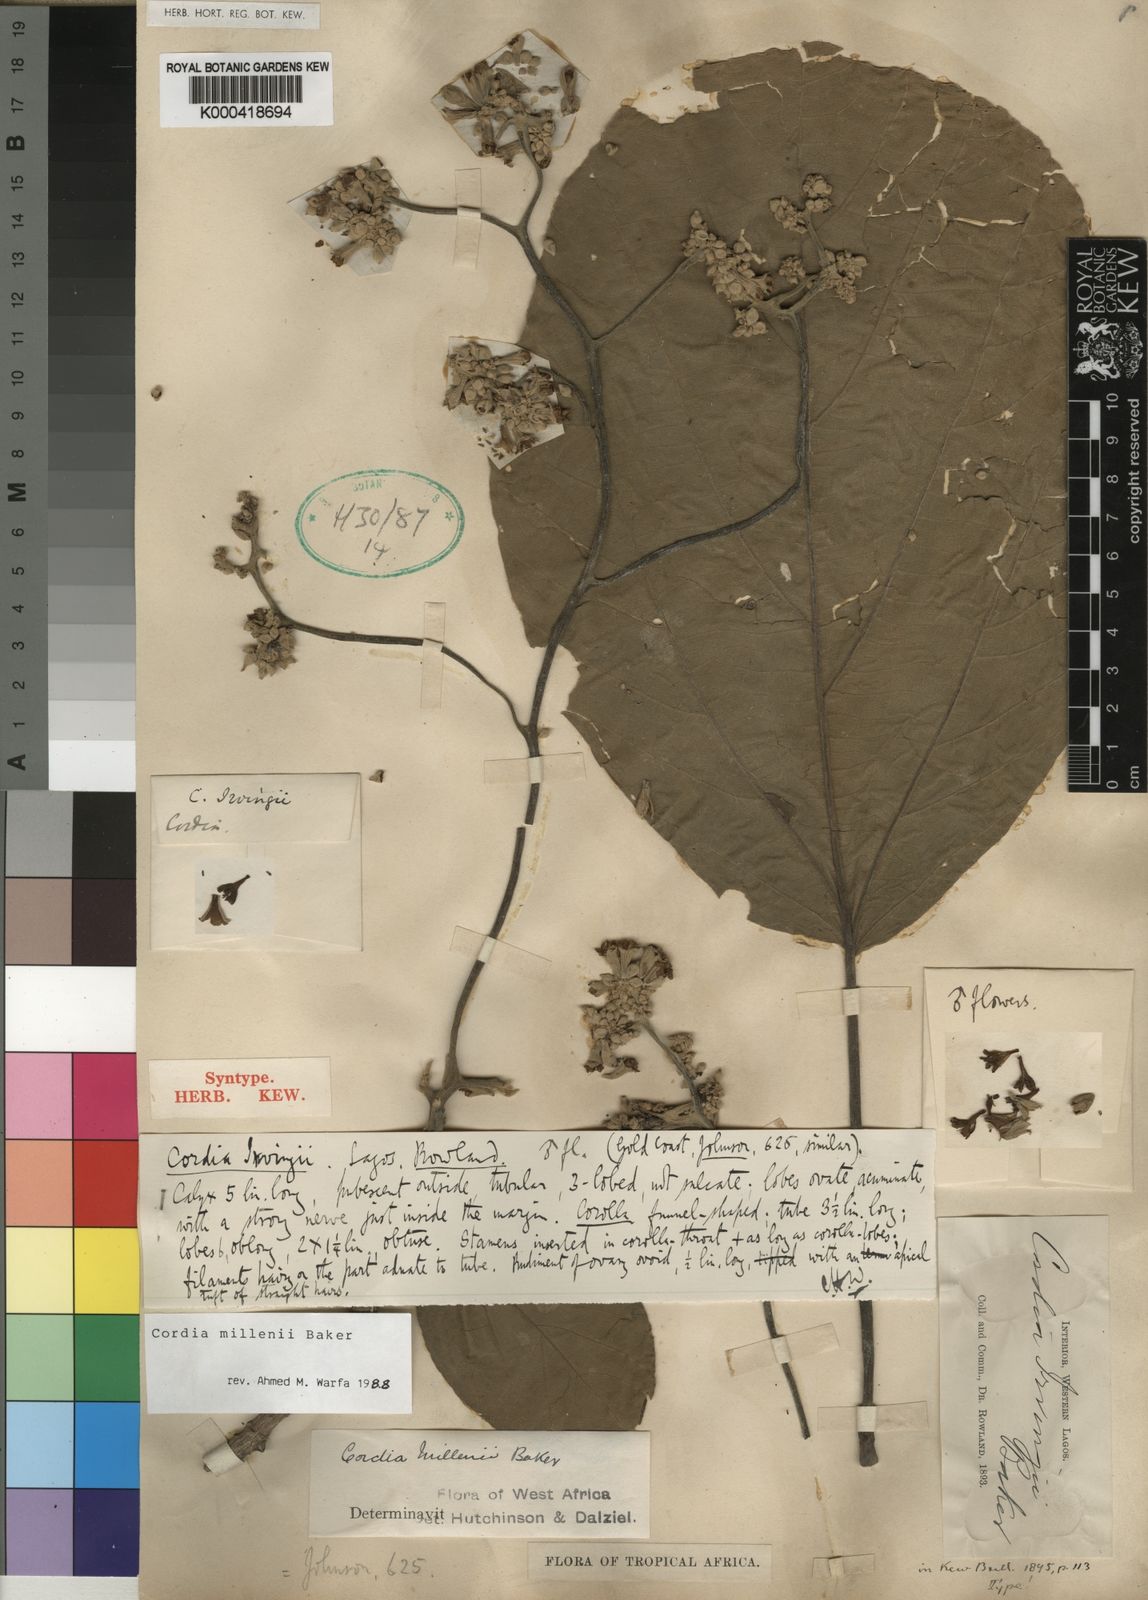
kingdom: Plantae
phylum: Tracheophyta
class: Magnoliopsida
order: Boraginales
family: Cordiaceae
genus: Cordia
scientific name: Cordia millenii
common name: Drum tree
